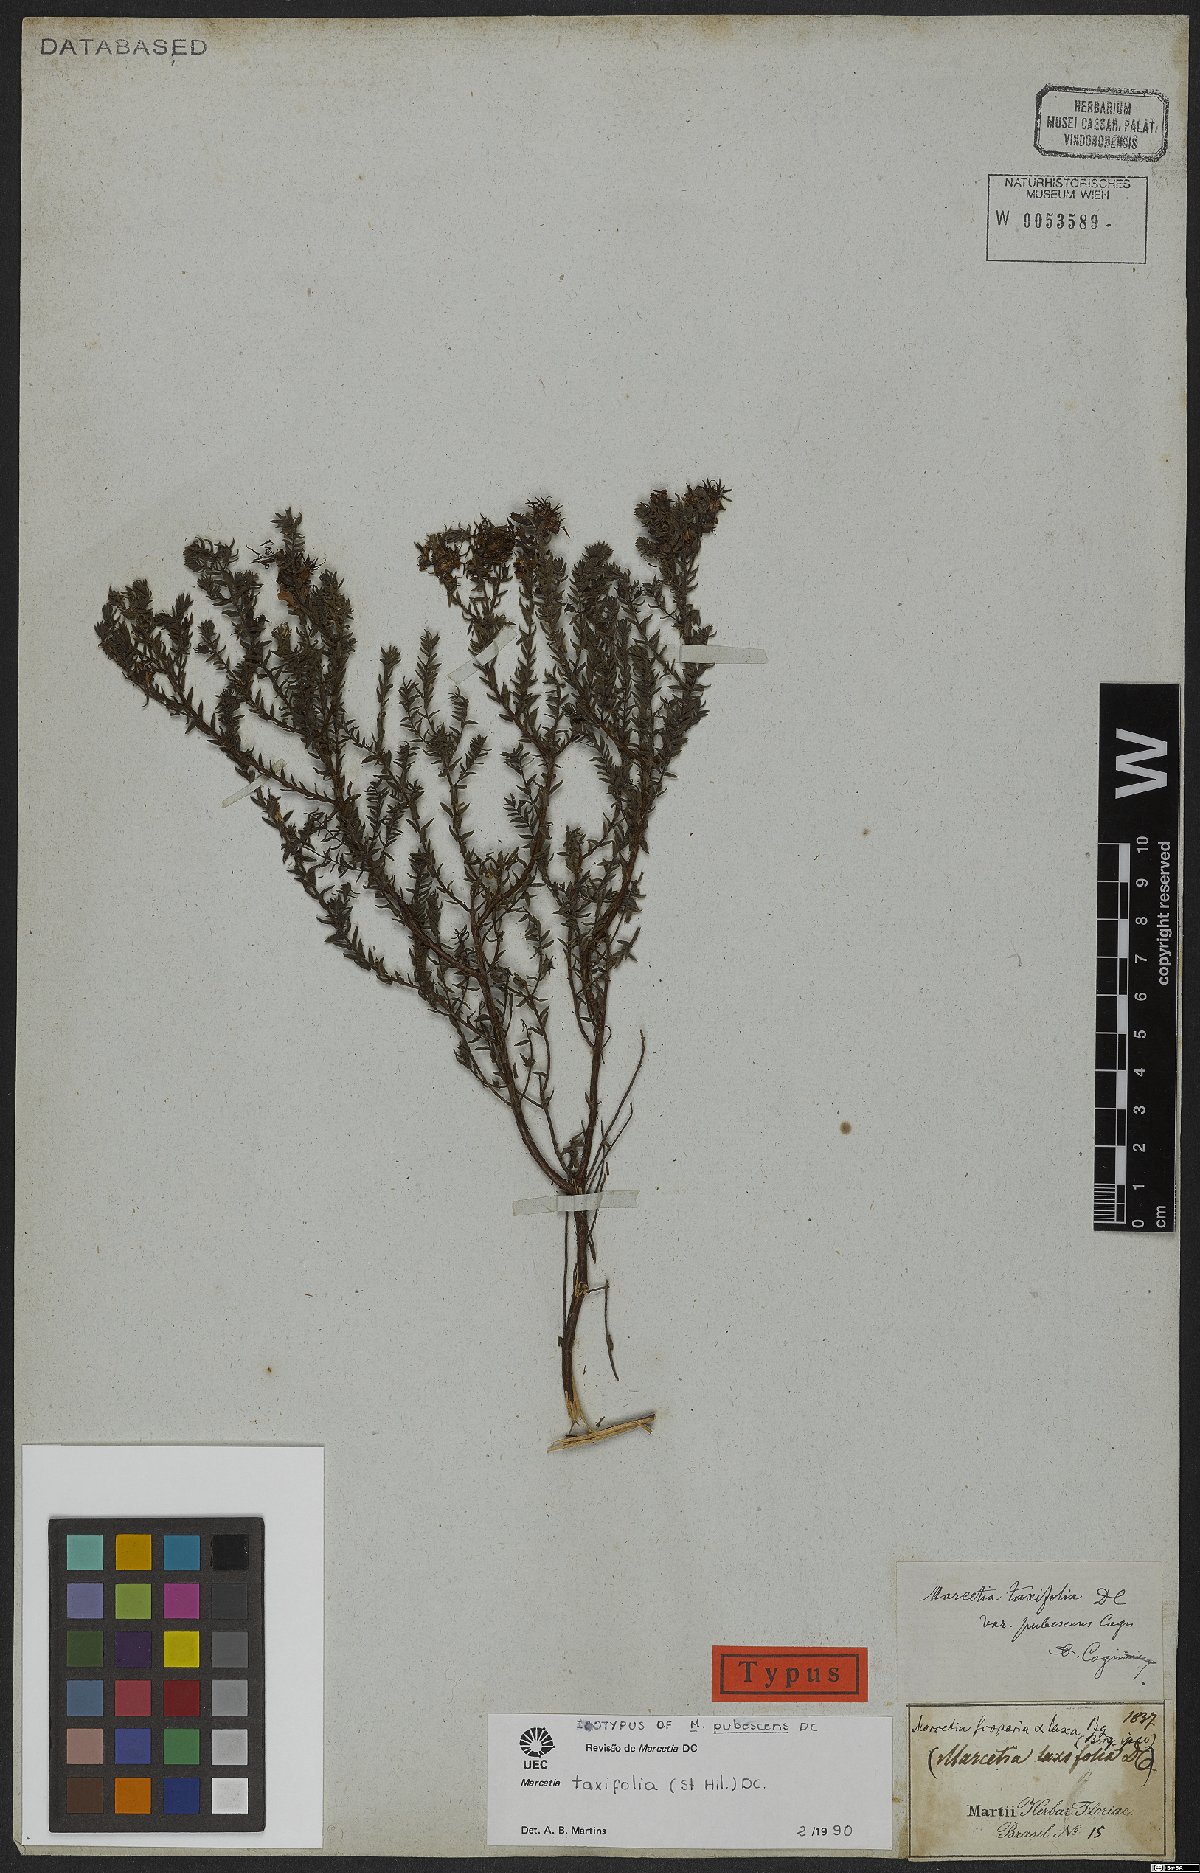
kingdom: Plantae
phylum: Tracheophyta
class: Magnoliopsida
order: Myrtales
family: Melastomataceae
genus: Marcetia
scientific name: Marcetia taxifolia
